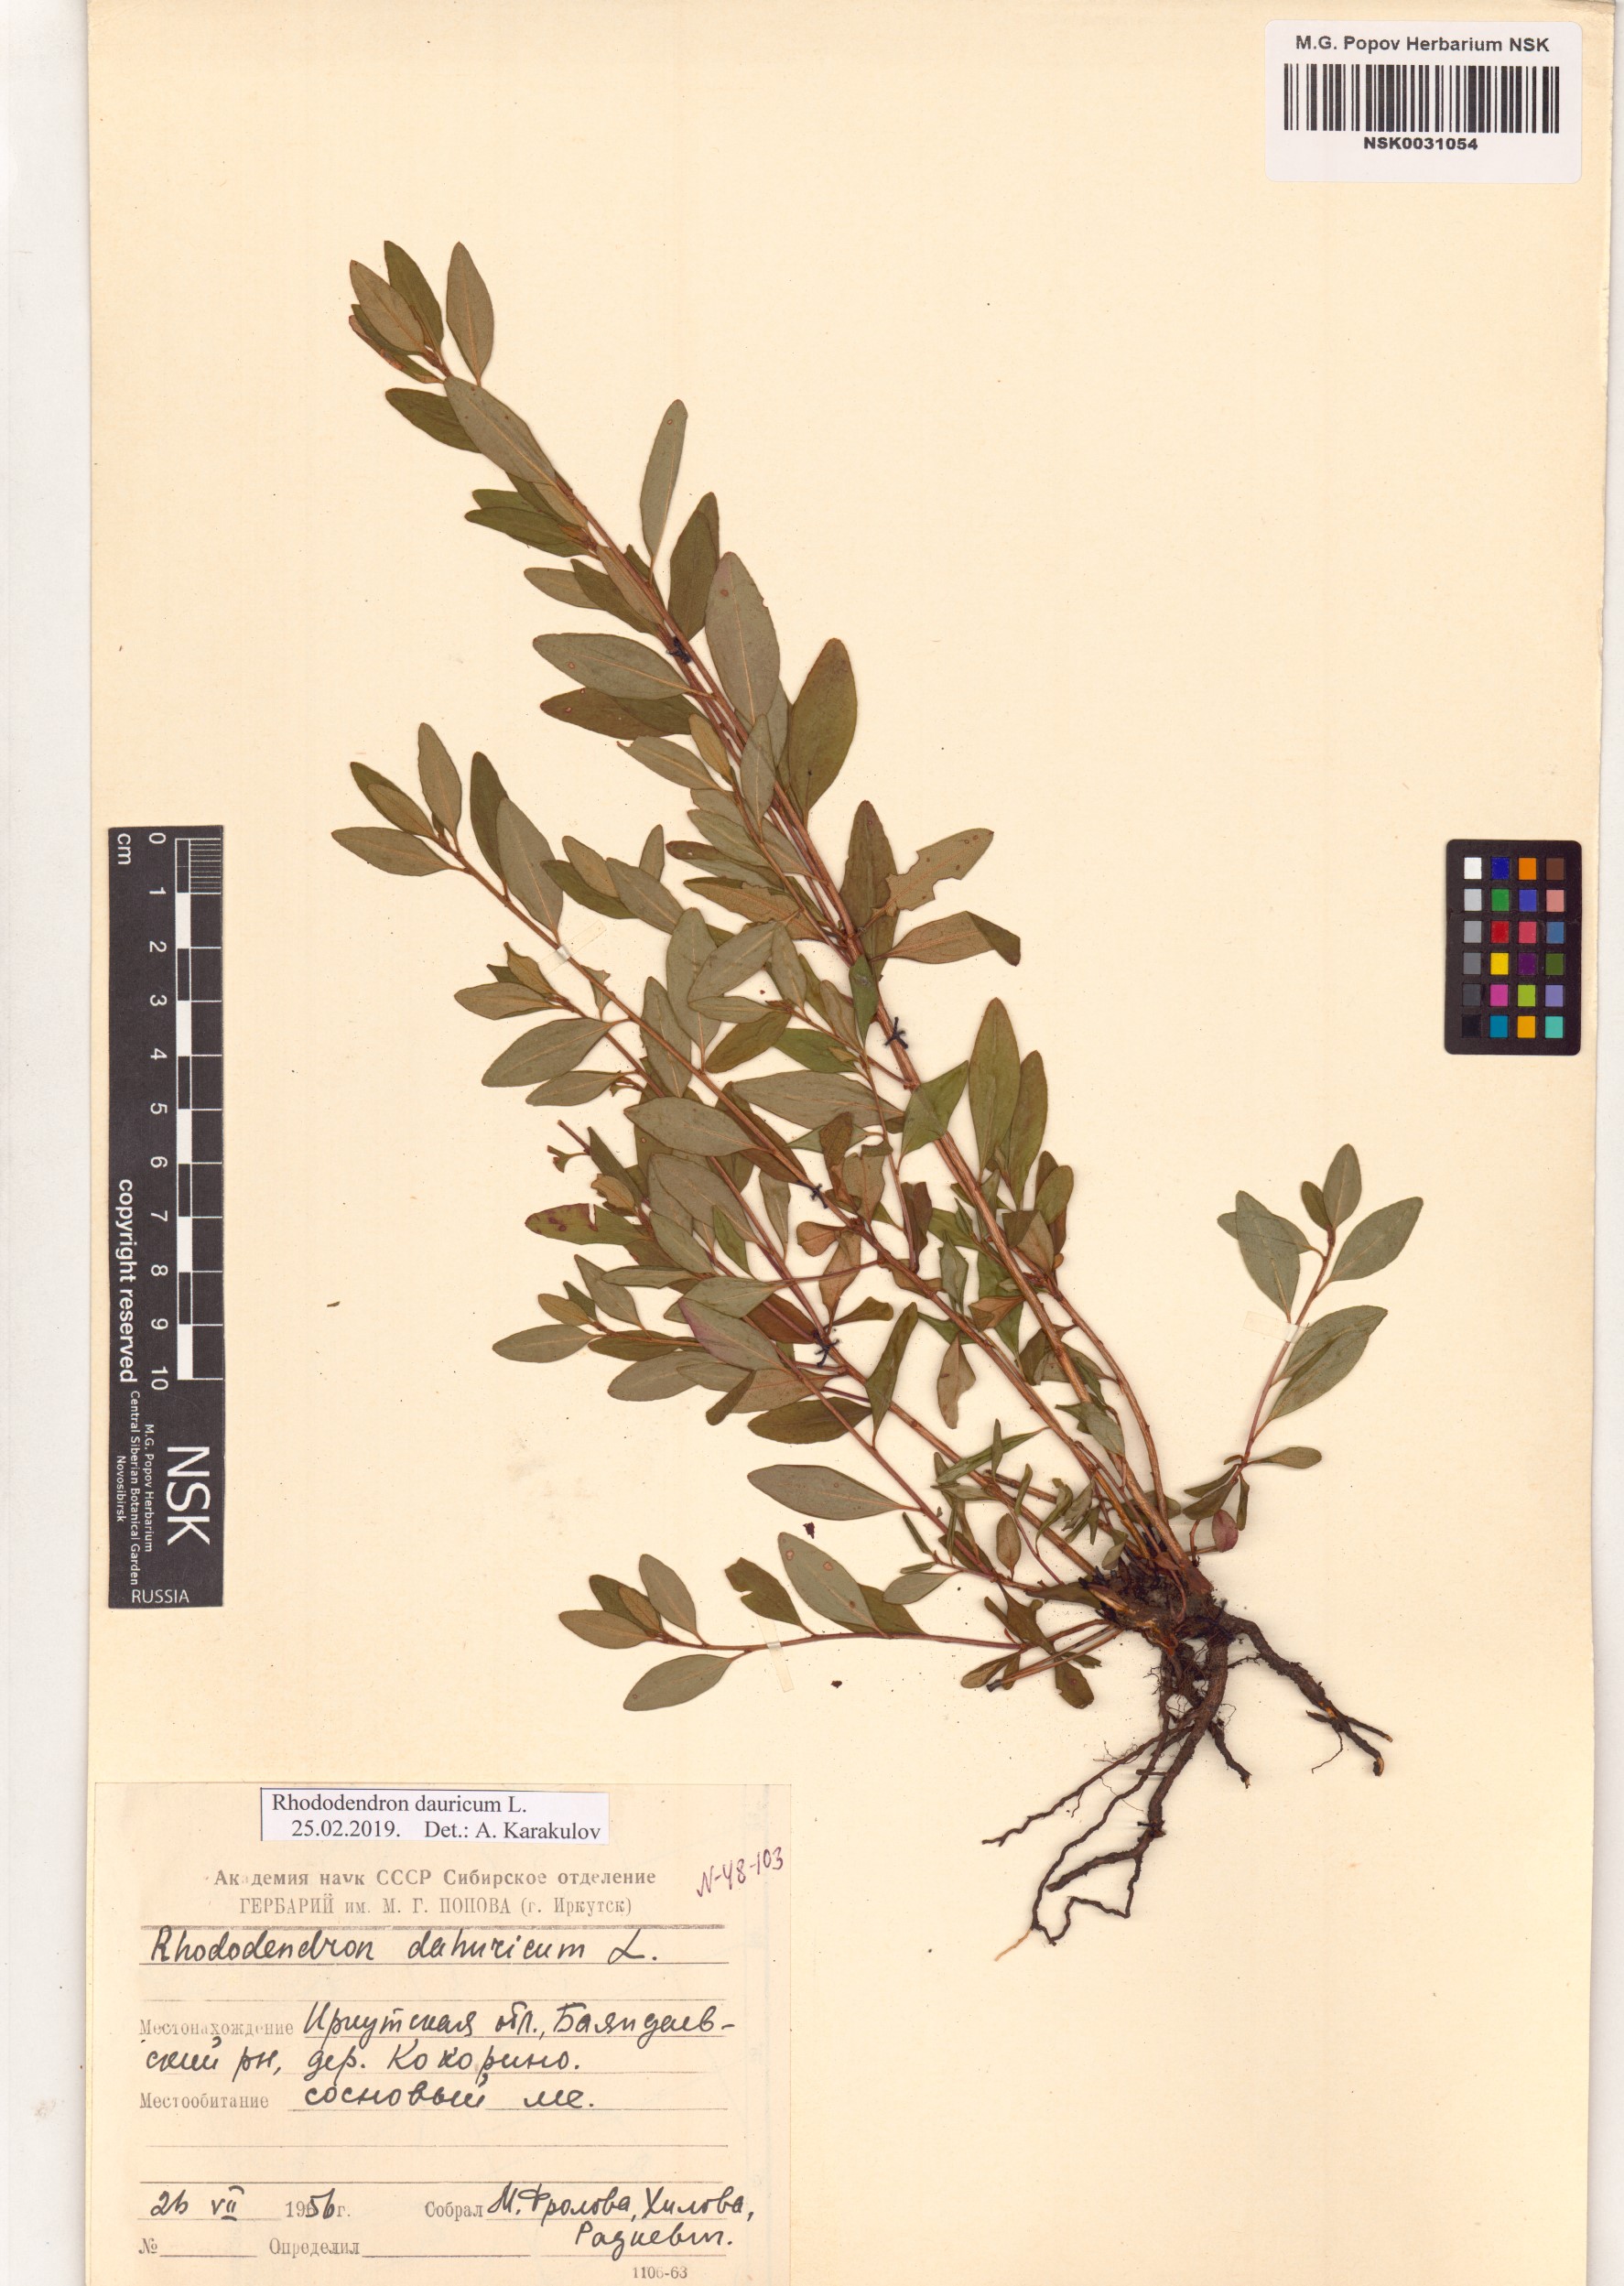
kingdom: Plantae
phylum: Tracheophyta
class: Magnoliopsida
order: Ericales
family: Ericaceae
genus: Rhododendron
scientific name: Rhododendron dauricum
